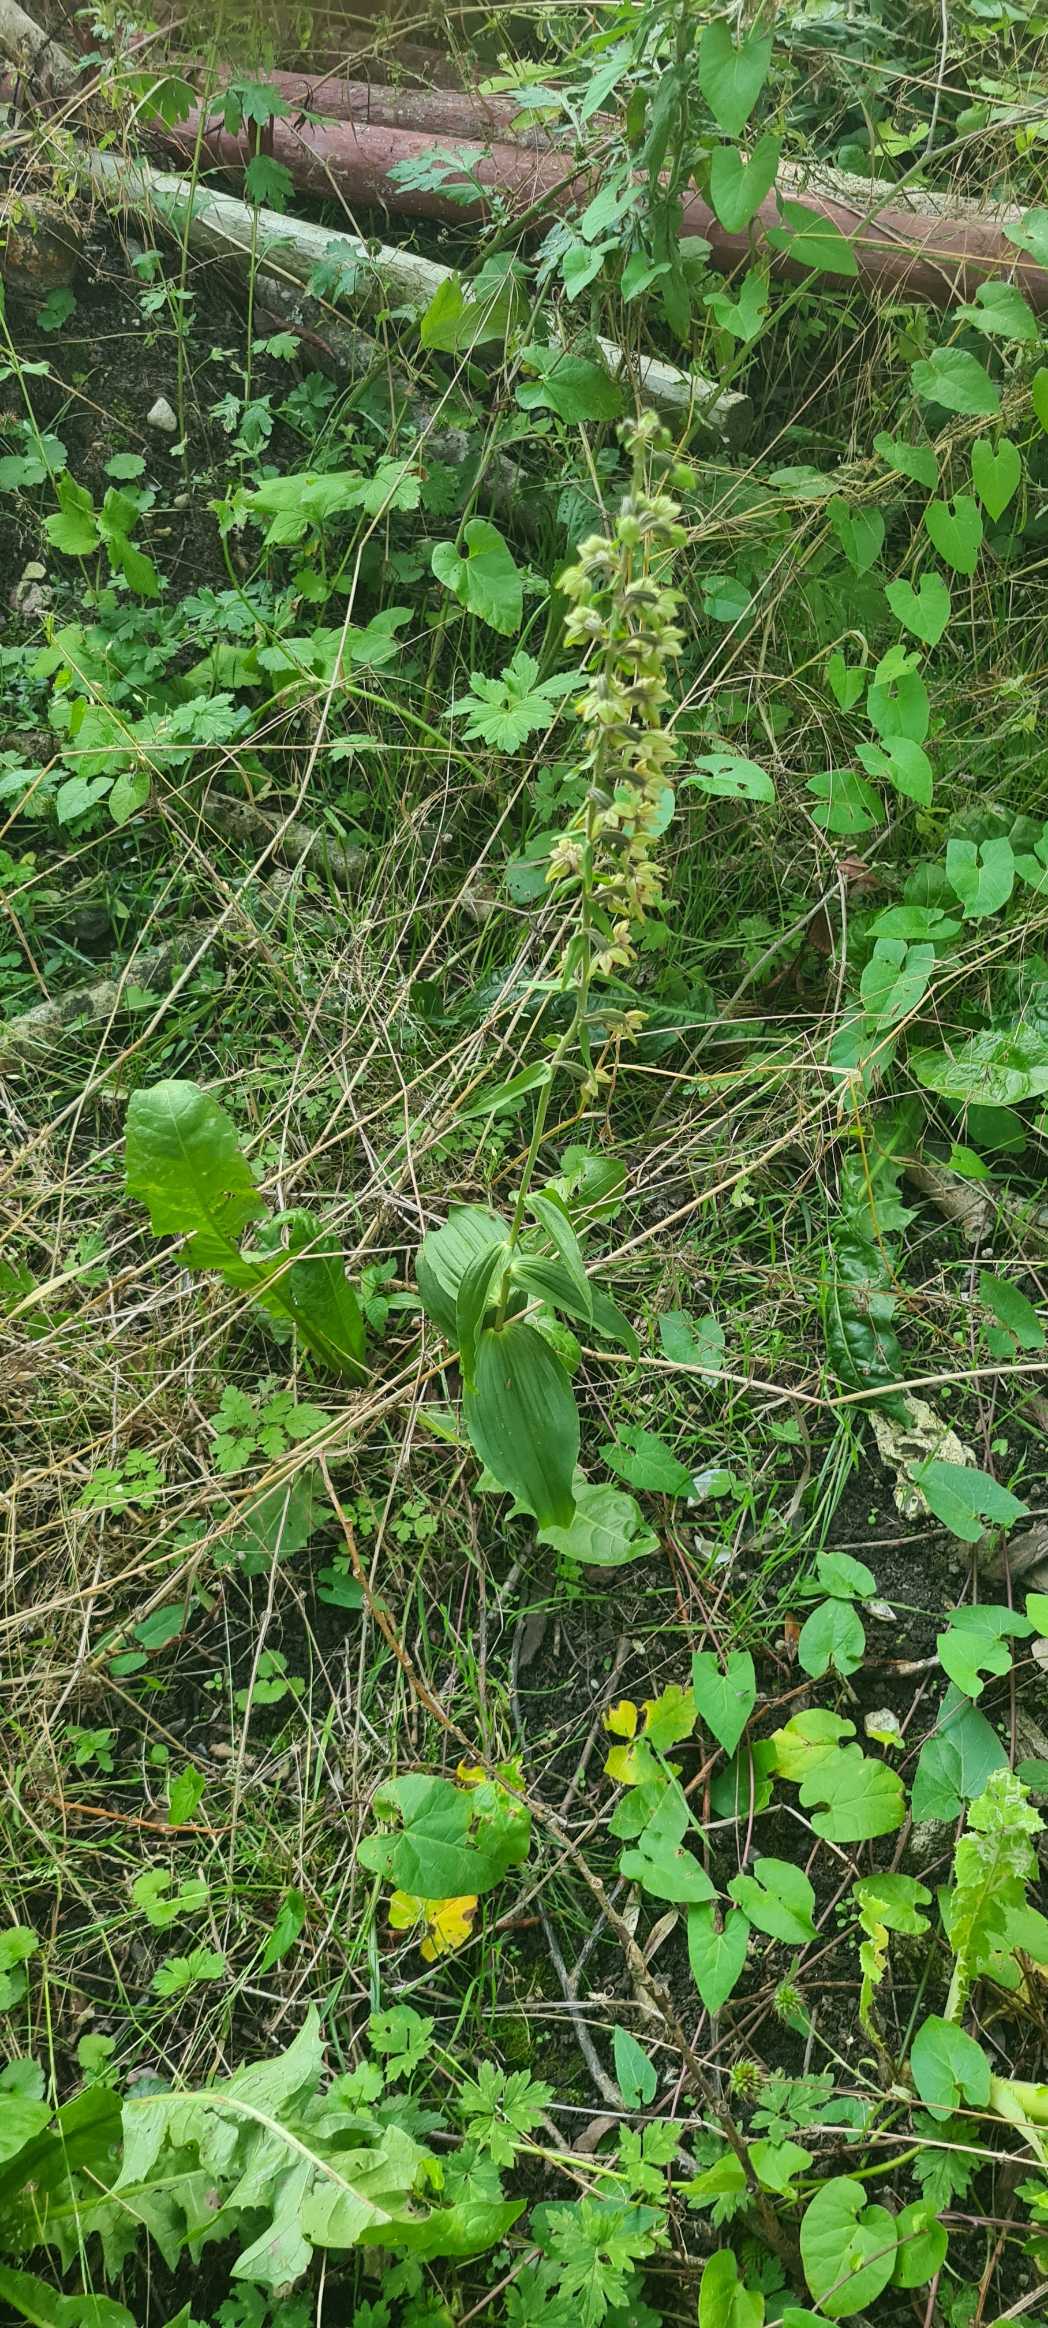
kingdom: Plantae
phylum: Tracheophyta
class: Liliopsida
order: Asparagales
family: Orchidaceae
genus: Epipactis
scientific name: Epipactis helleborine
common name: Skov-hullæbe
